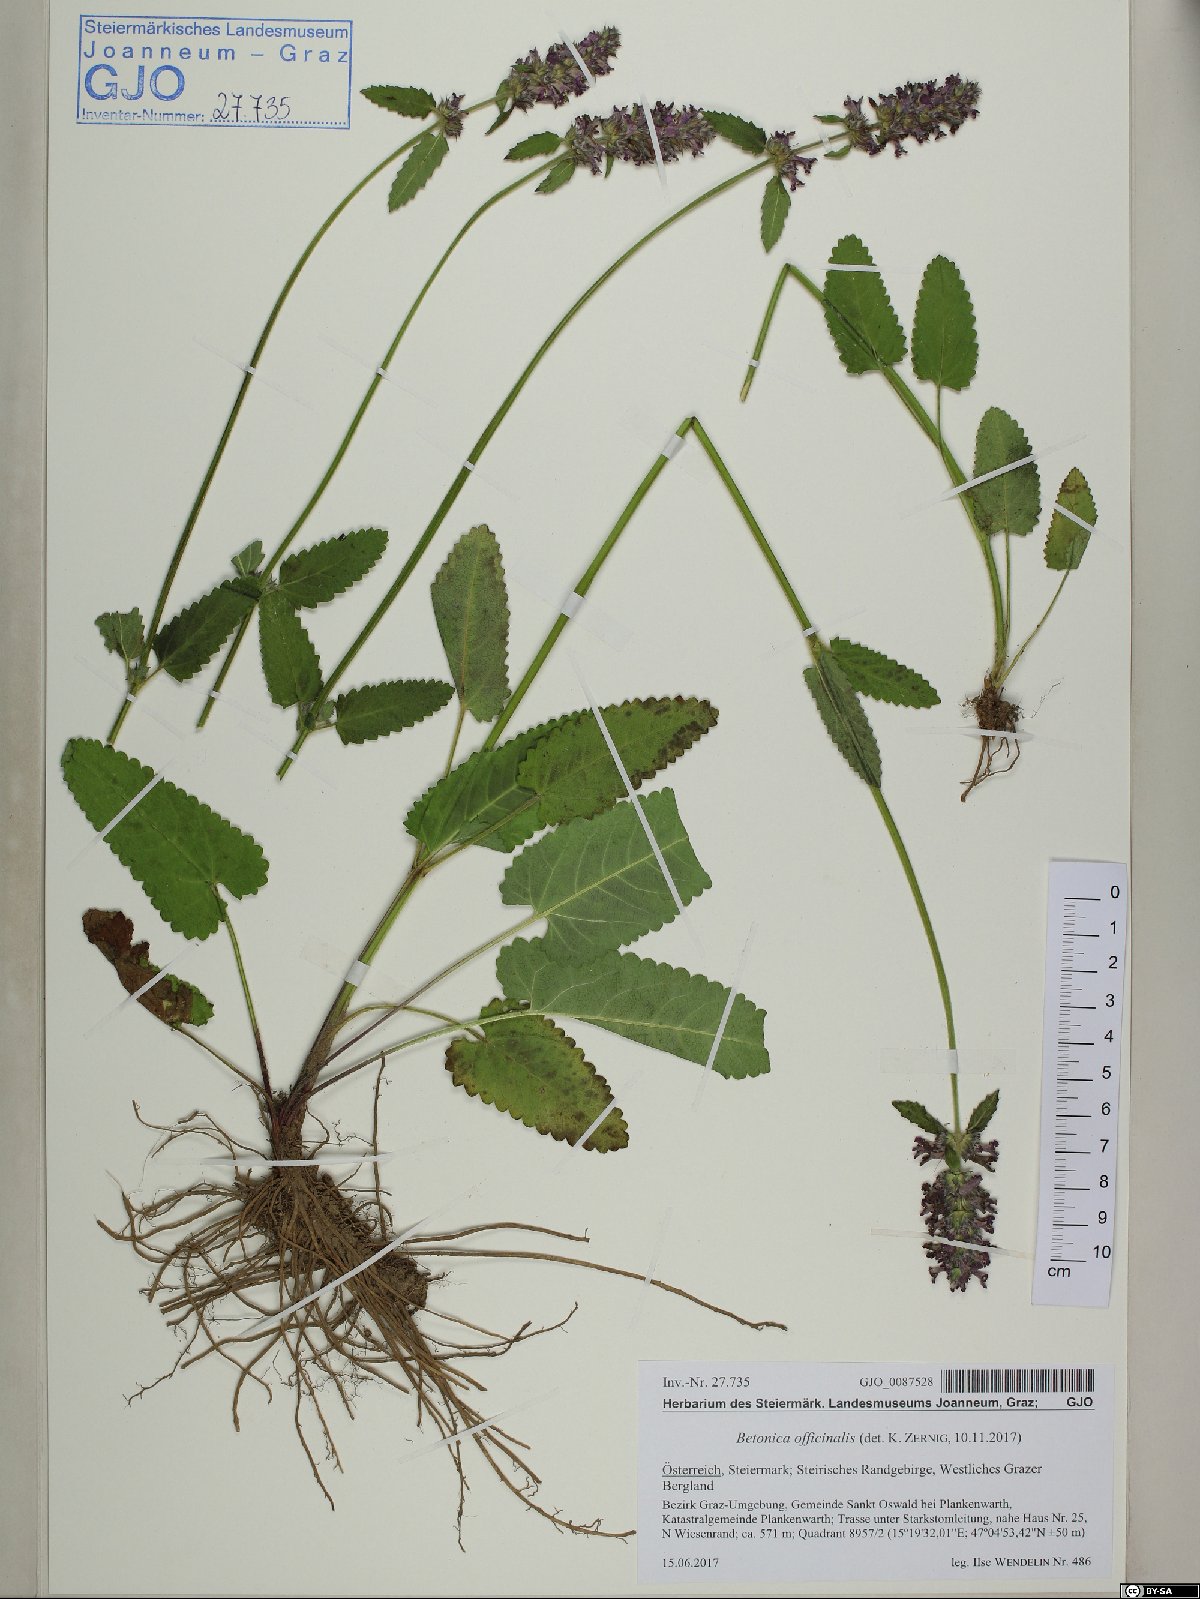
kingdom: Plantae
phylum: Tracheophyta
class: Magnoliopsida
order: Lamiales
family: Lamiaceae
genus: Betonica
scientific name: Betonica officinalis
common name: Bishop's-wort
